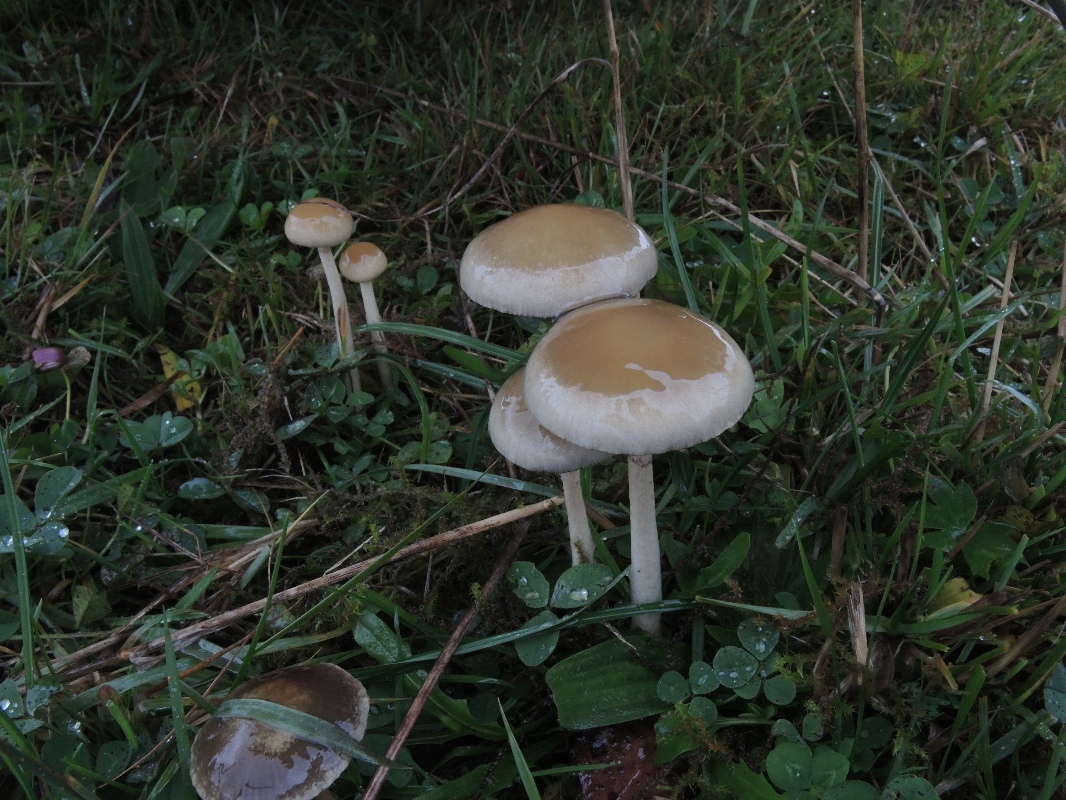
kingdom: Fungi
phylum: Basidiomycota
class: Agaricomycetes
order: Agaricales
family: Strophariaceae
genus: Protostropharia
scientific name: Protostropharia semiglobata
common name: halvkugleformet bredblad
